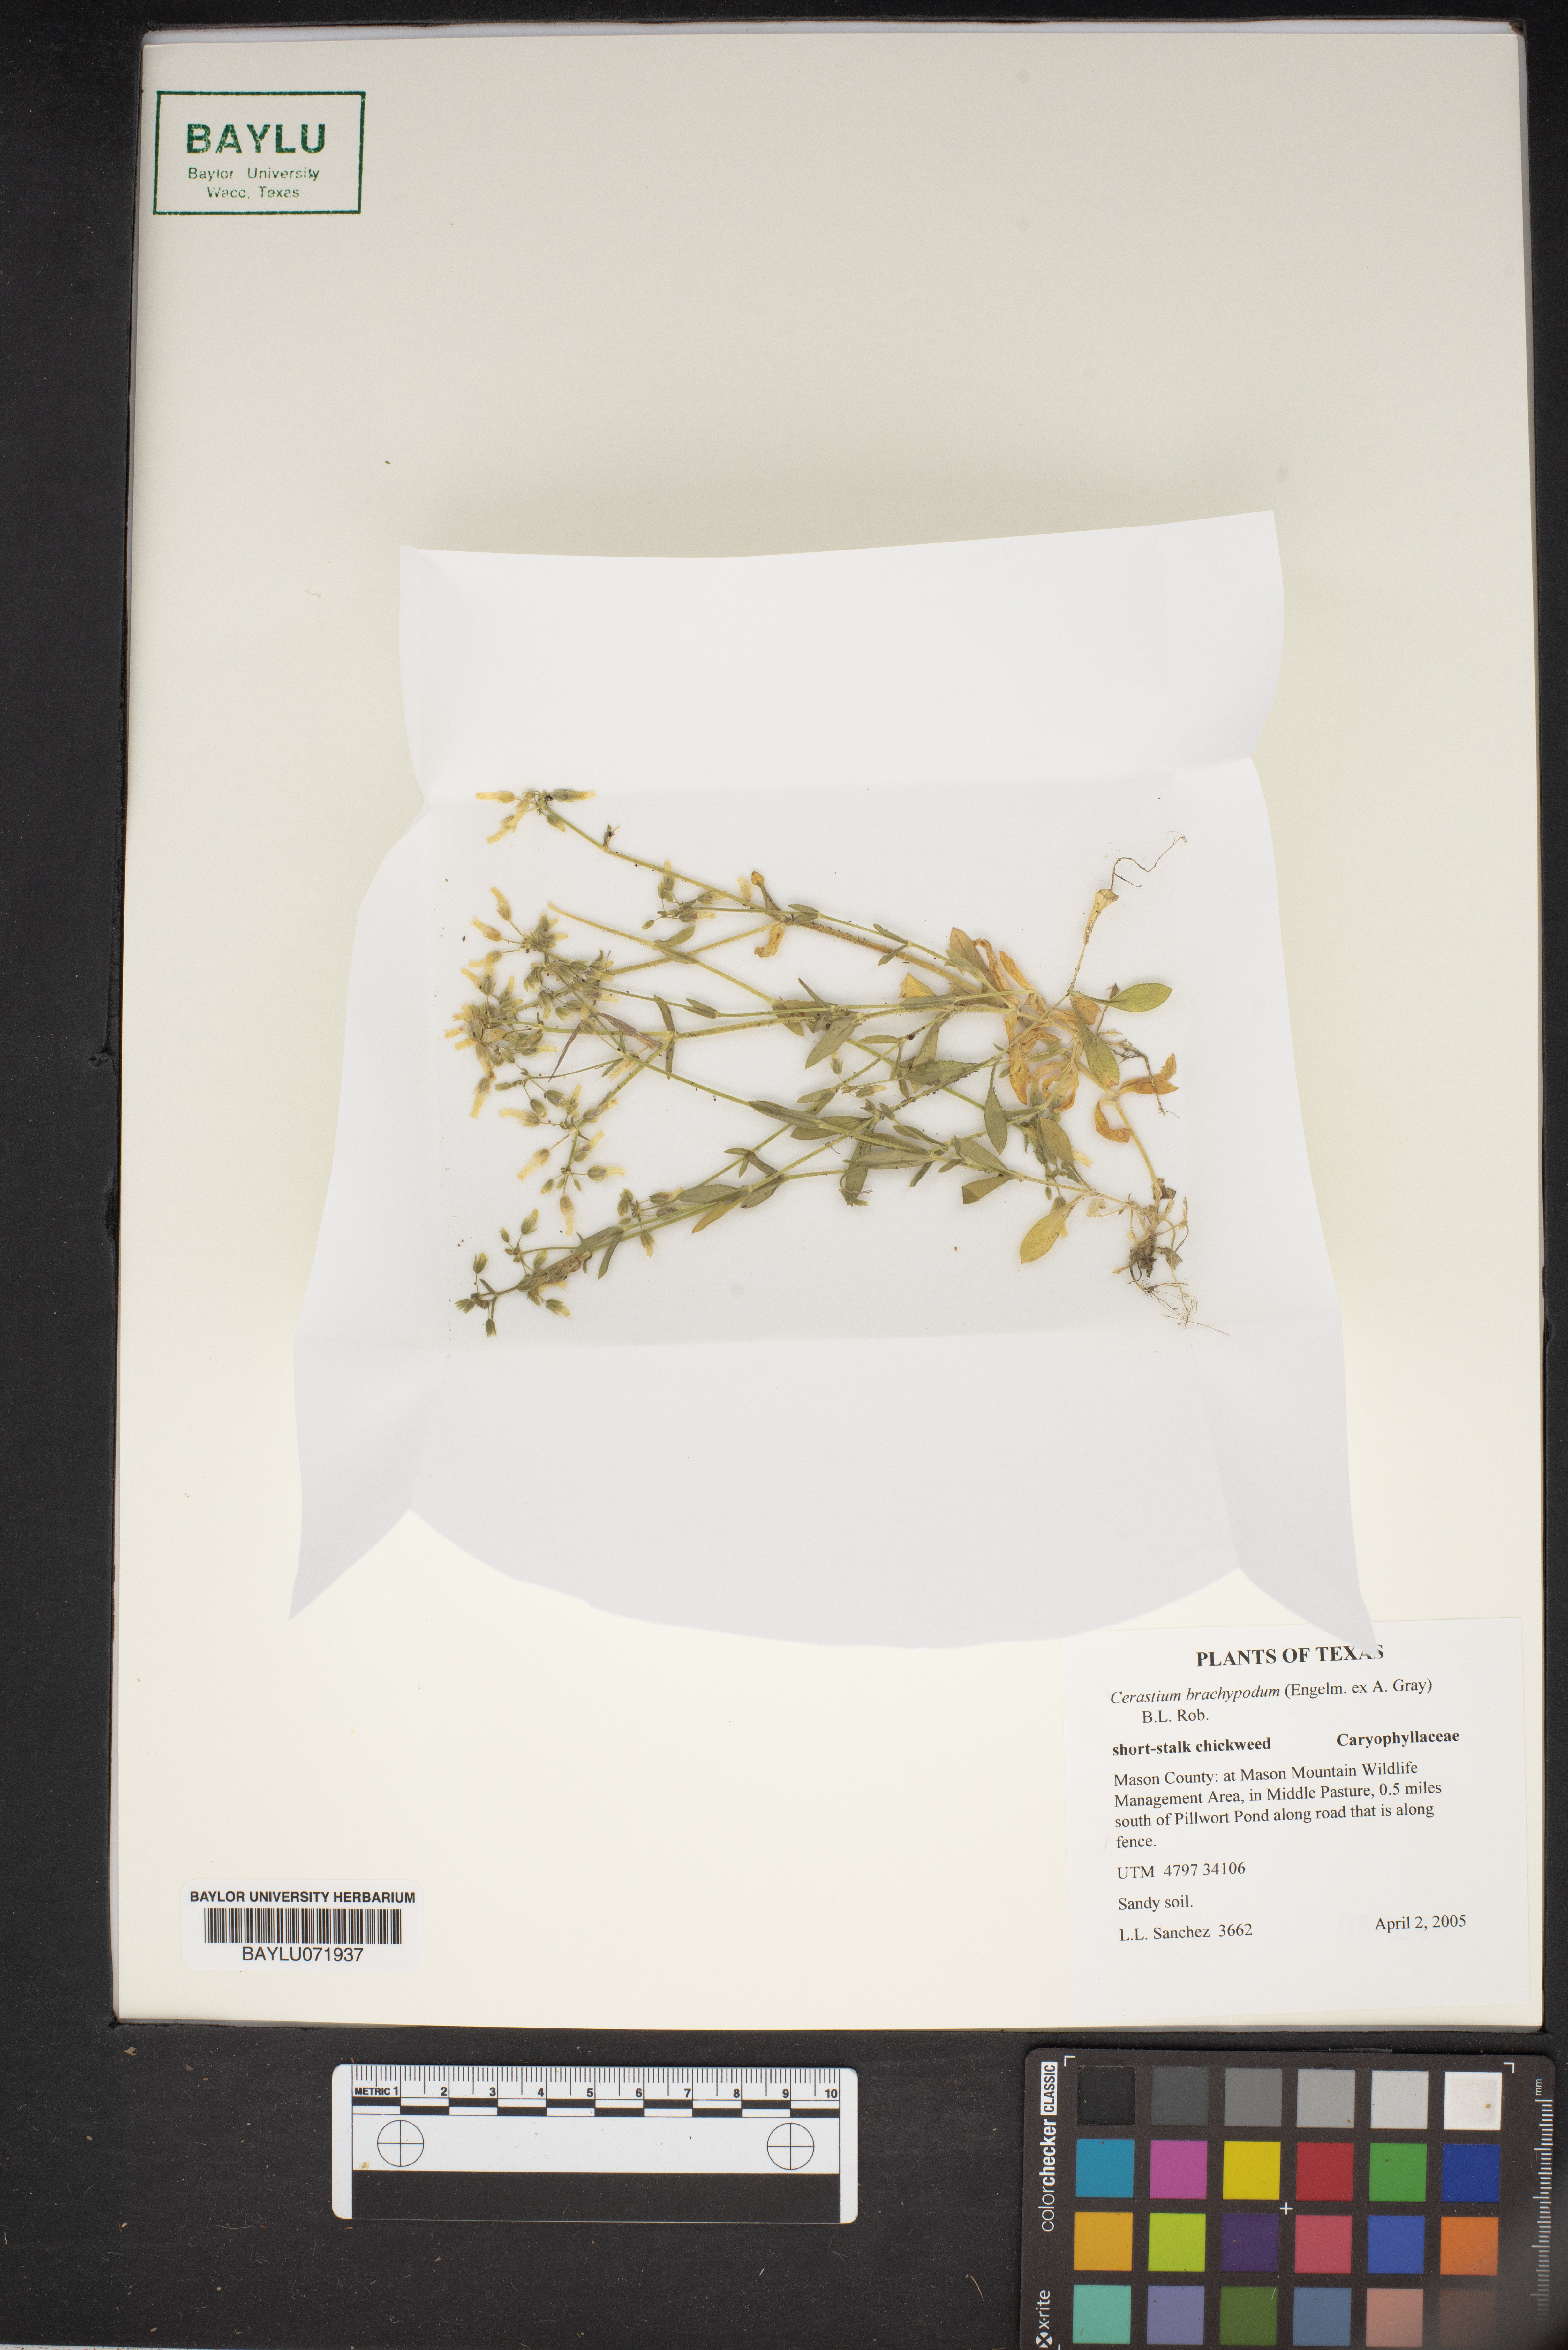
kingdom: Plantae
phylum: Tracheophyta
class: Magnoliopsida
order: Caryophyllales
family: Caryophyllaceae
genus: Cerastium
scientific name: Cerastium brachypodum
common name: Short-pedicelled nodding chickweed
